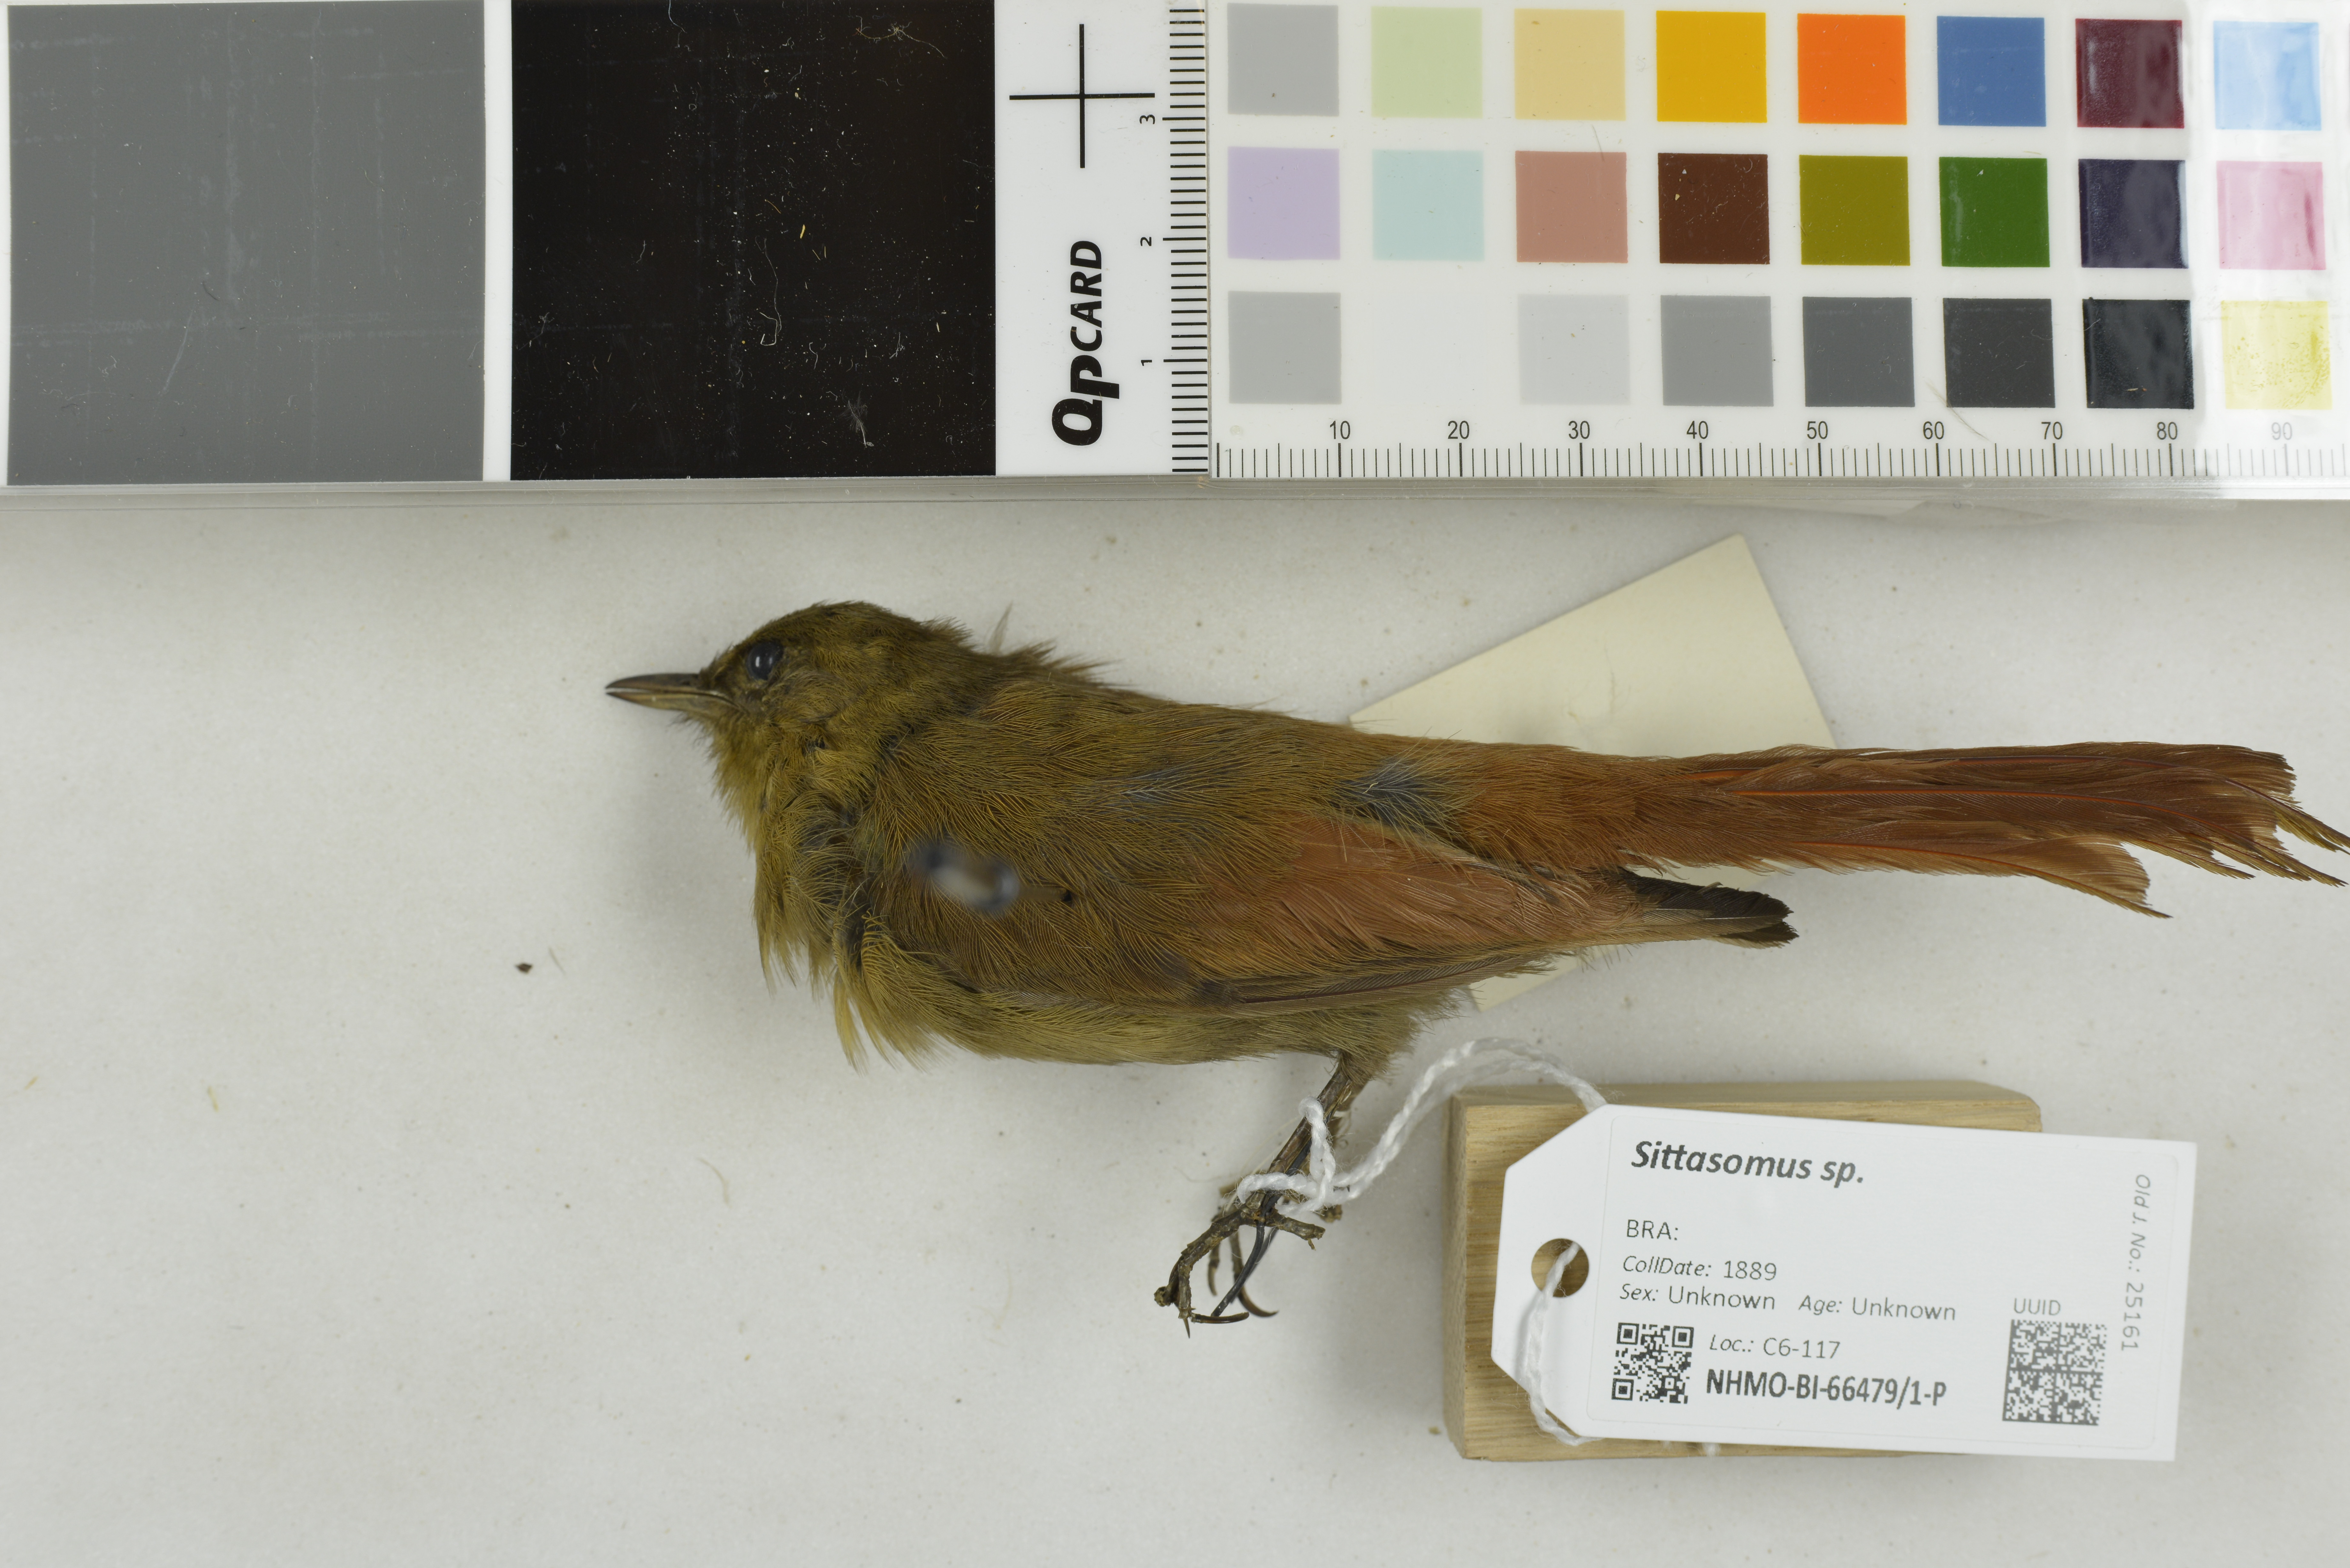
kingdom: Animalia
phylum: Chordata
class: Aves
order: Passeriformes
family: Furnariidae
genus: Sittasomus
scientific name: Sittasomus
